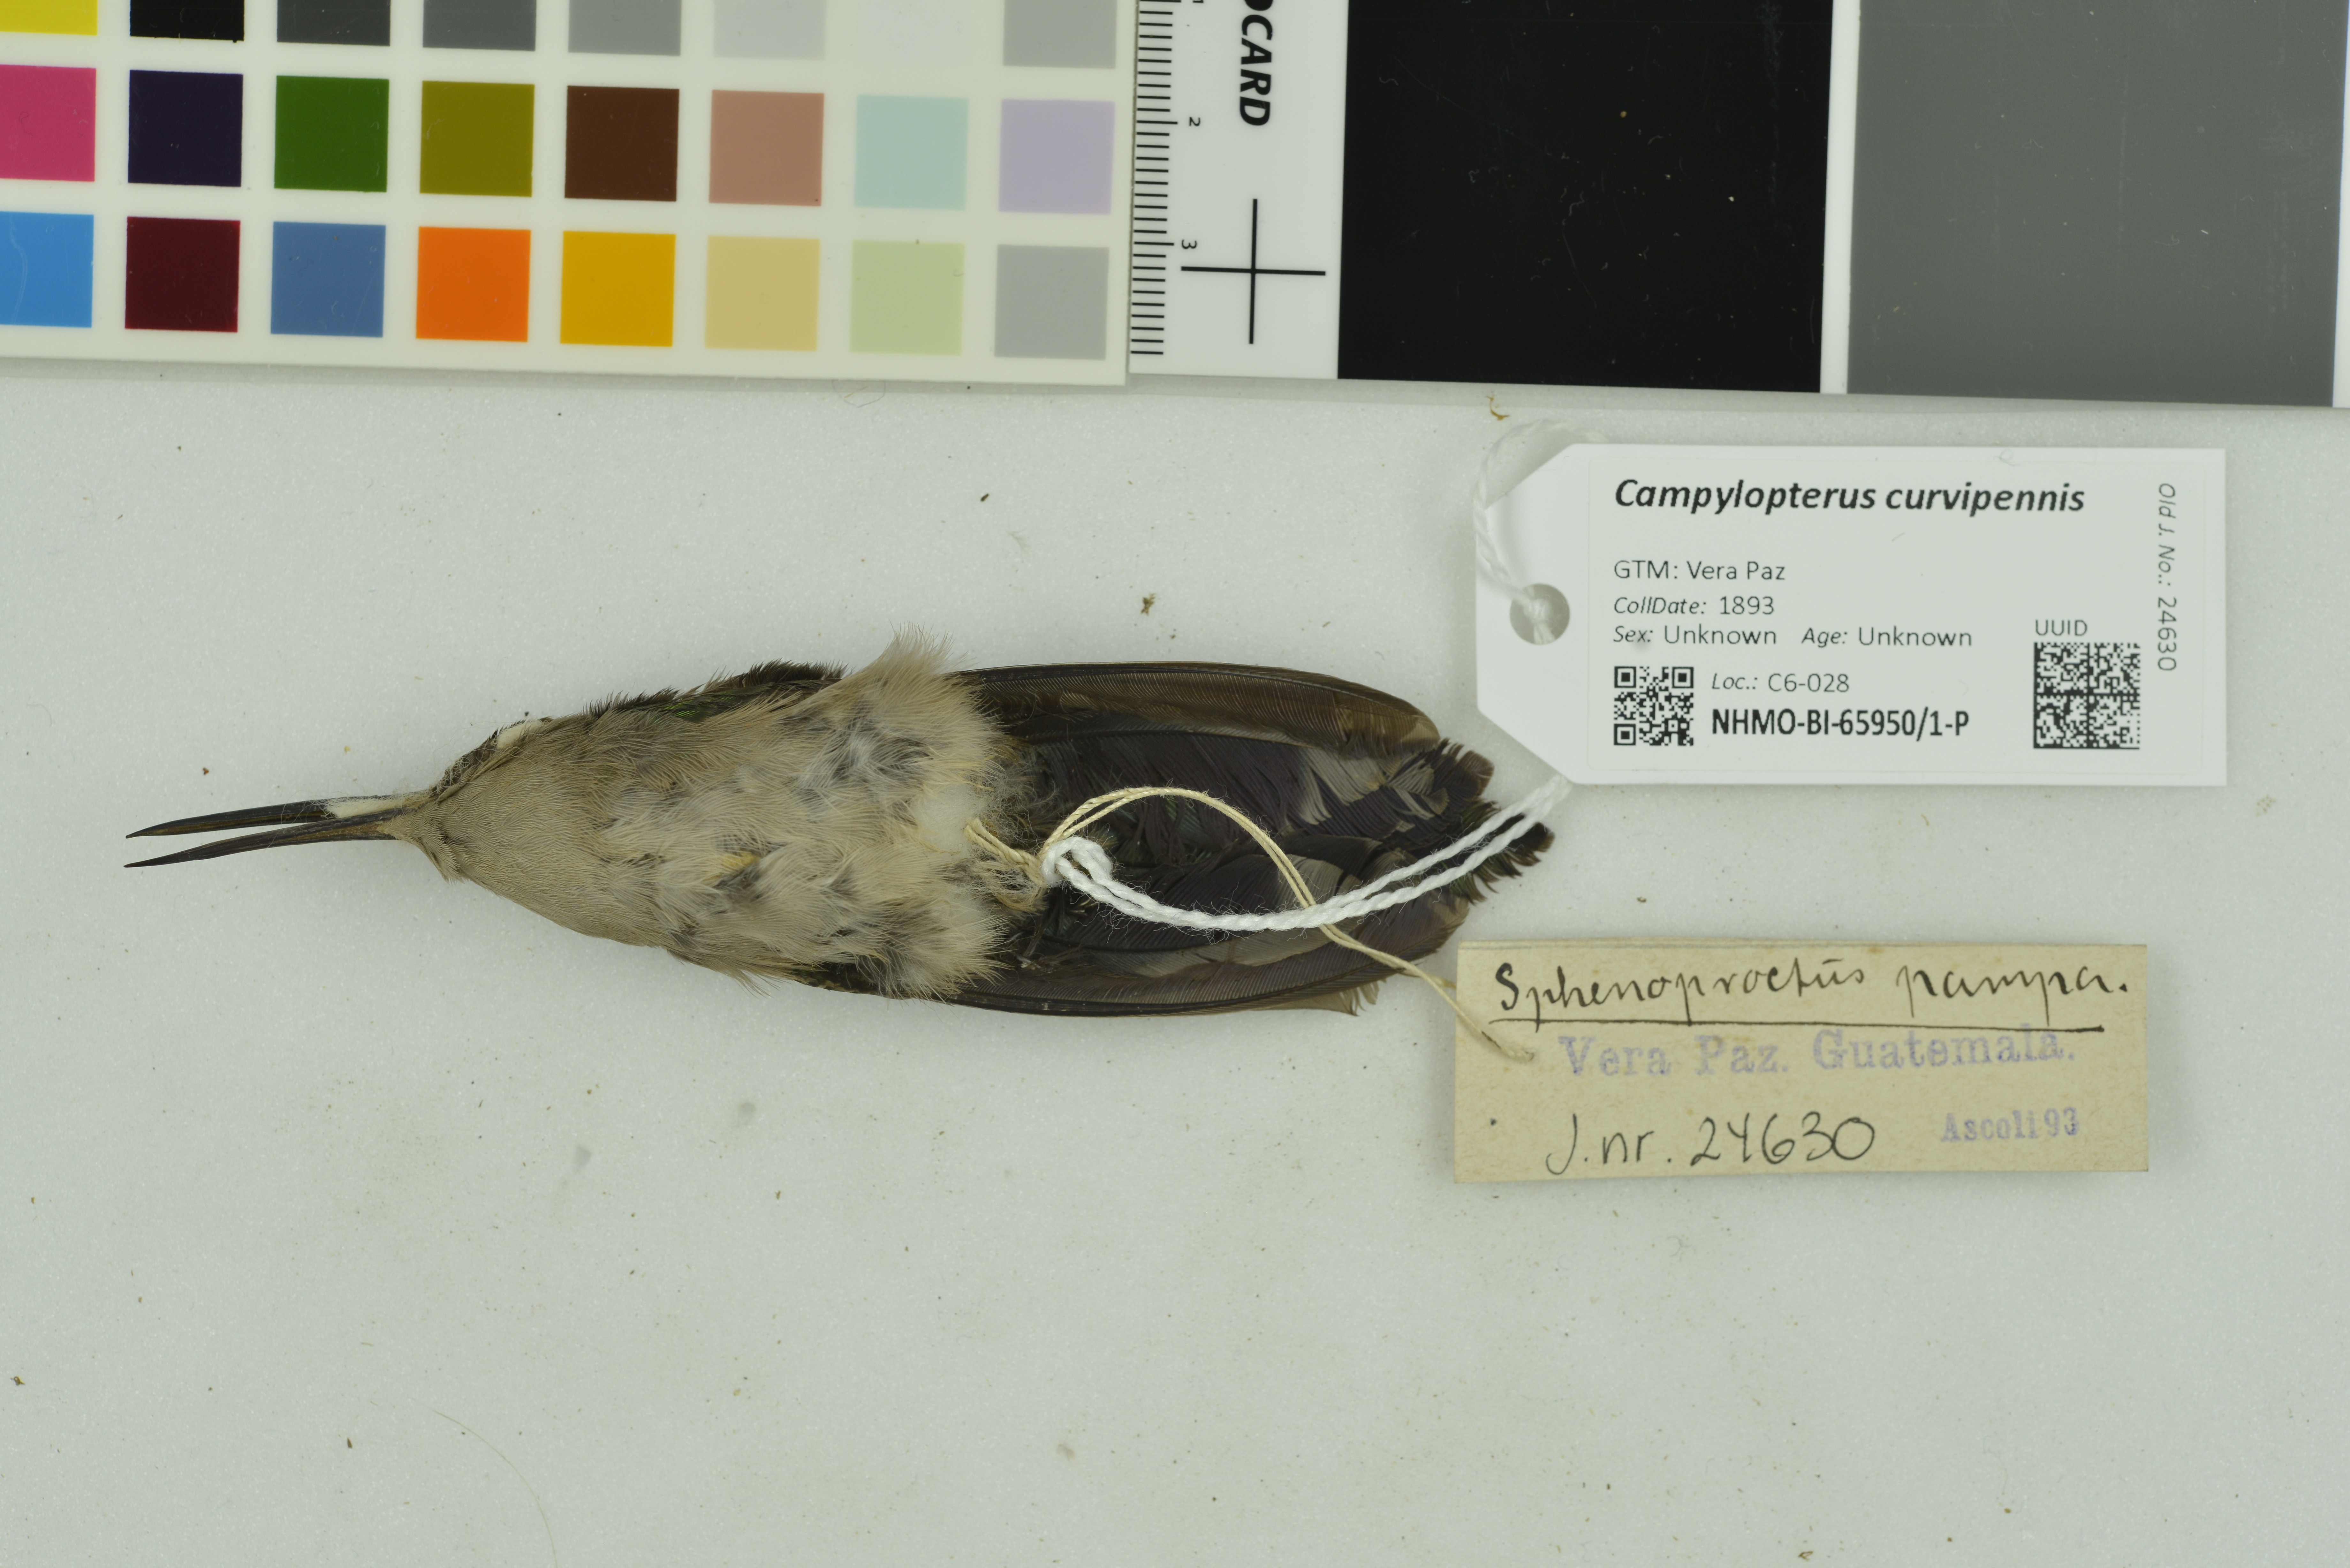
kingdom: Animalia
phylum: Chordata
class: Aves
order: Apodiformes
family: Trochilidae
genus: Pampa
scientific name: Pampa curvipennis
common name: Curve-winged sabrewing
